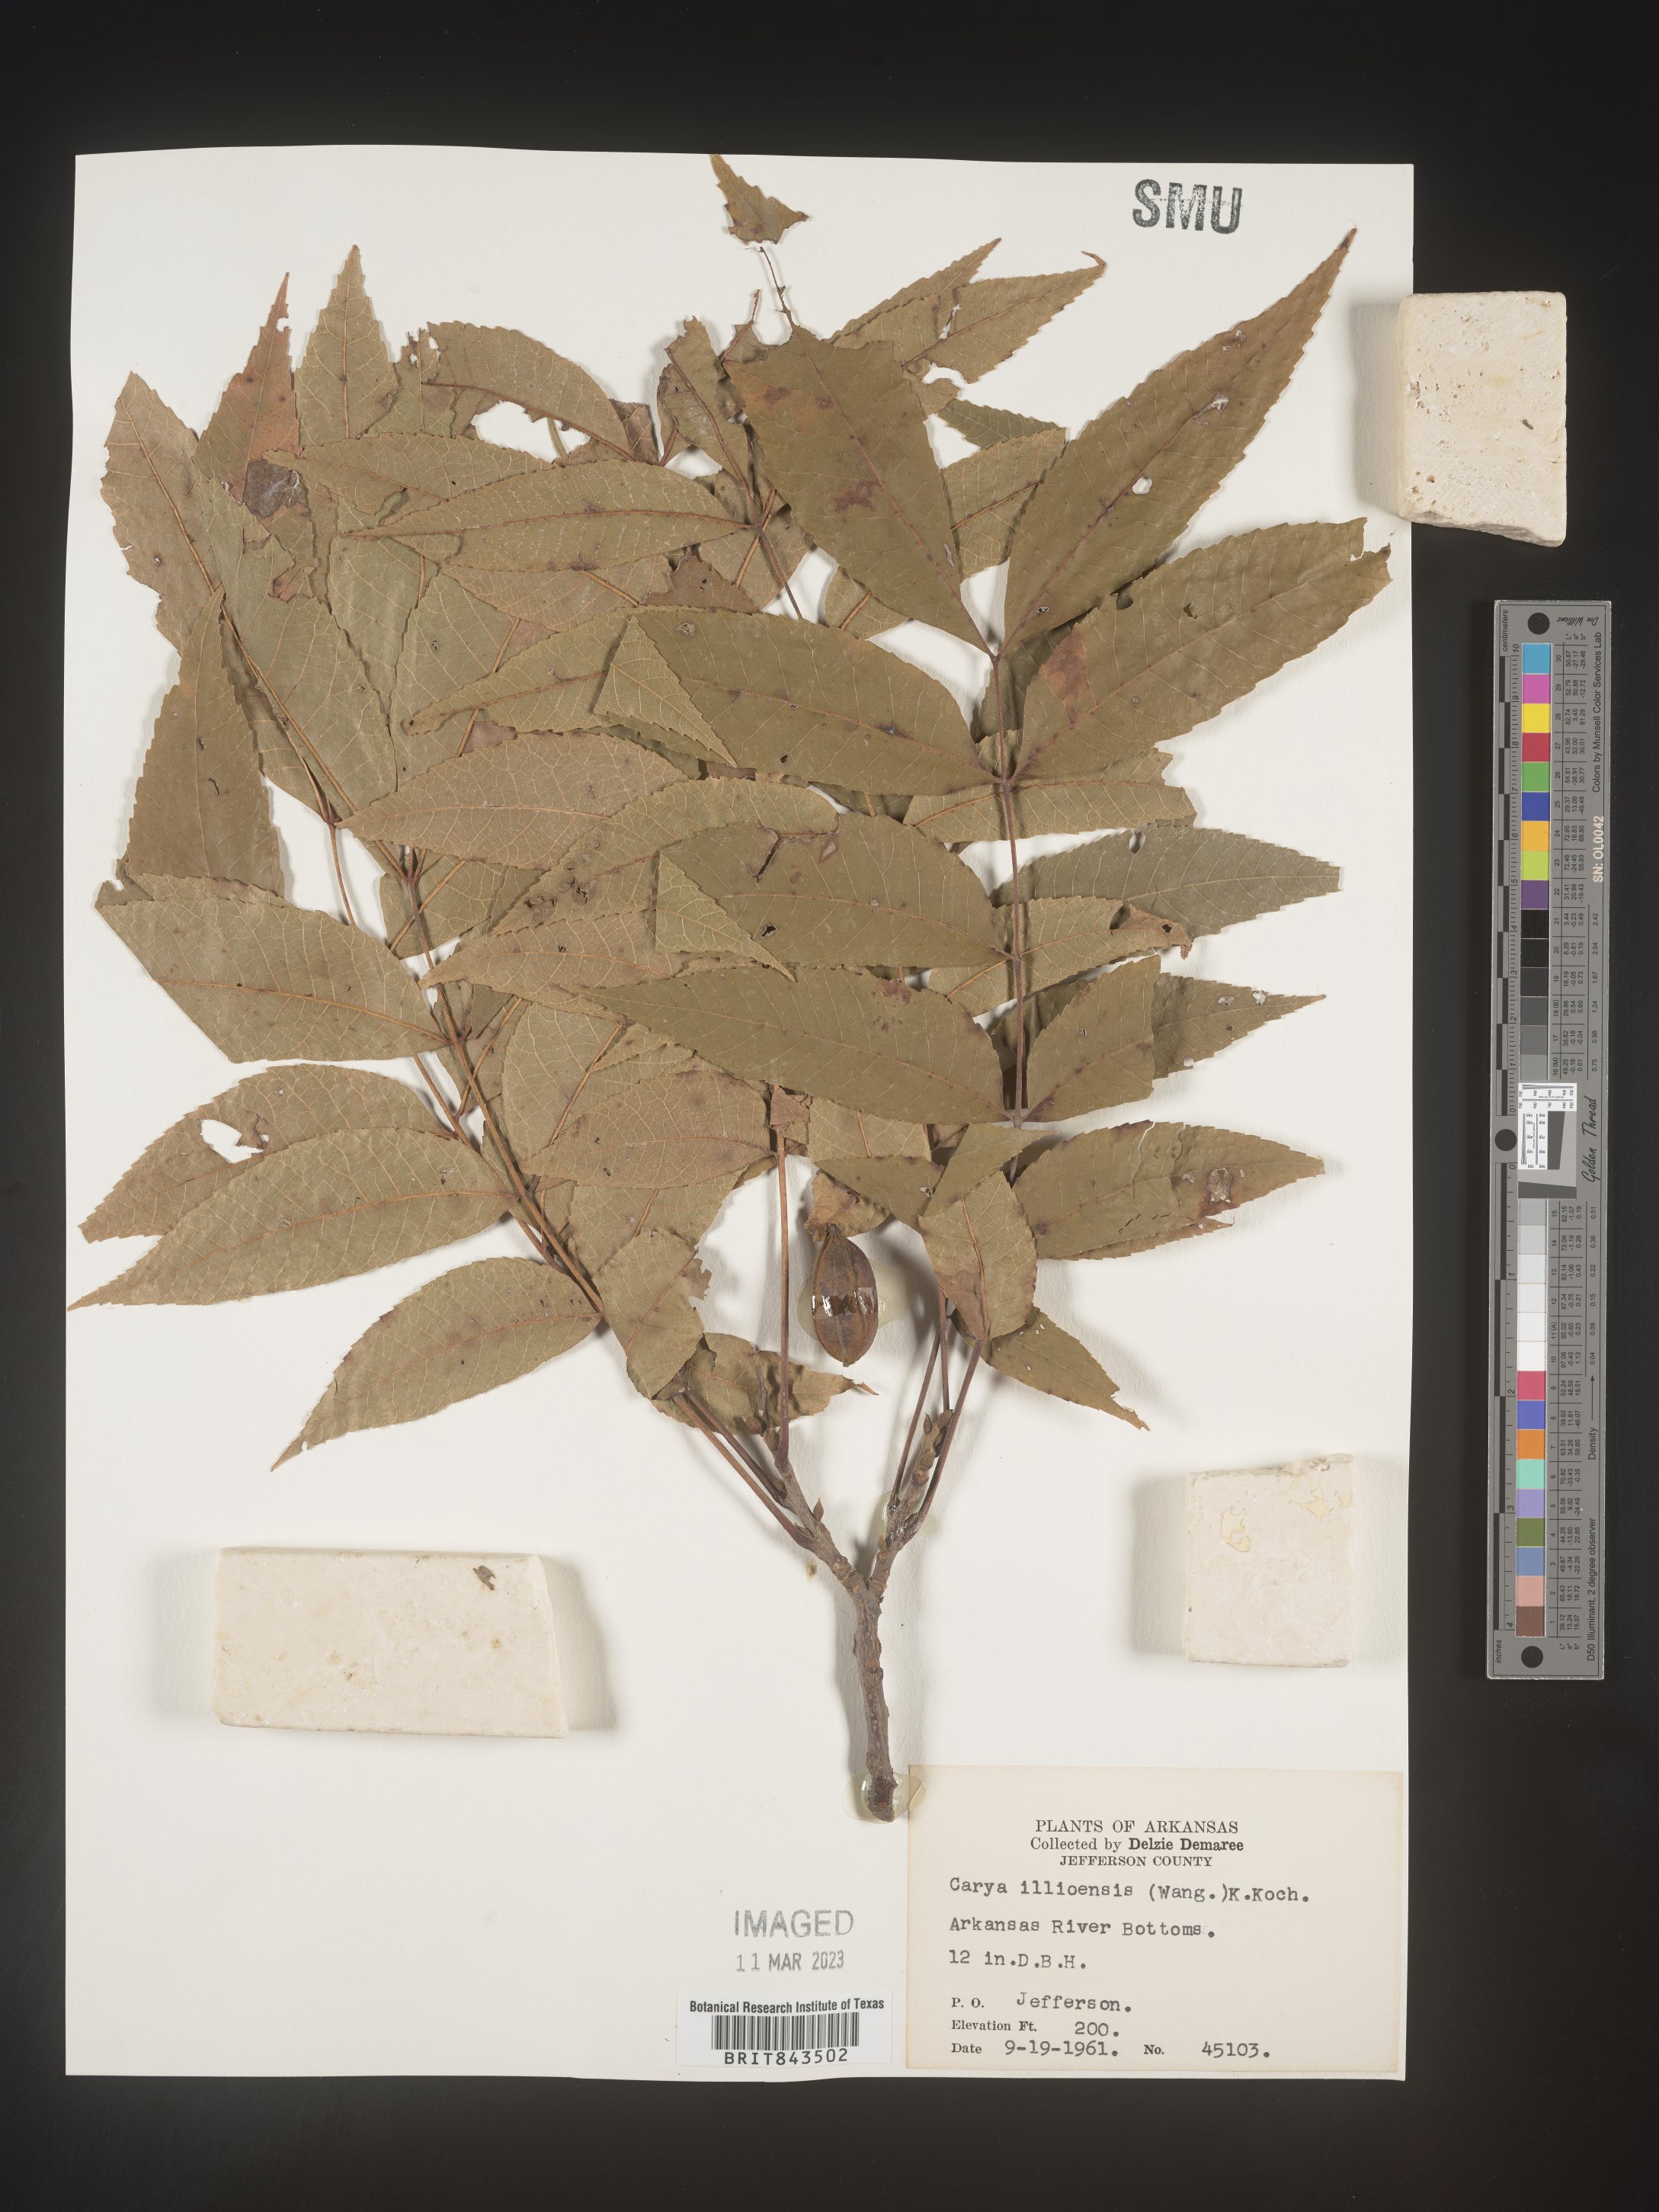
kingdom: Plantae
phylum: Tracheophyta
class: Magnoliopsida
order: Fagales
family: Juglandaceae
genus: Carya
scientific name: Carya illinoinensis
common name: Pecan
